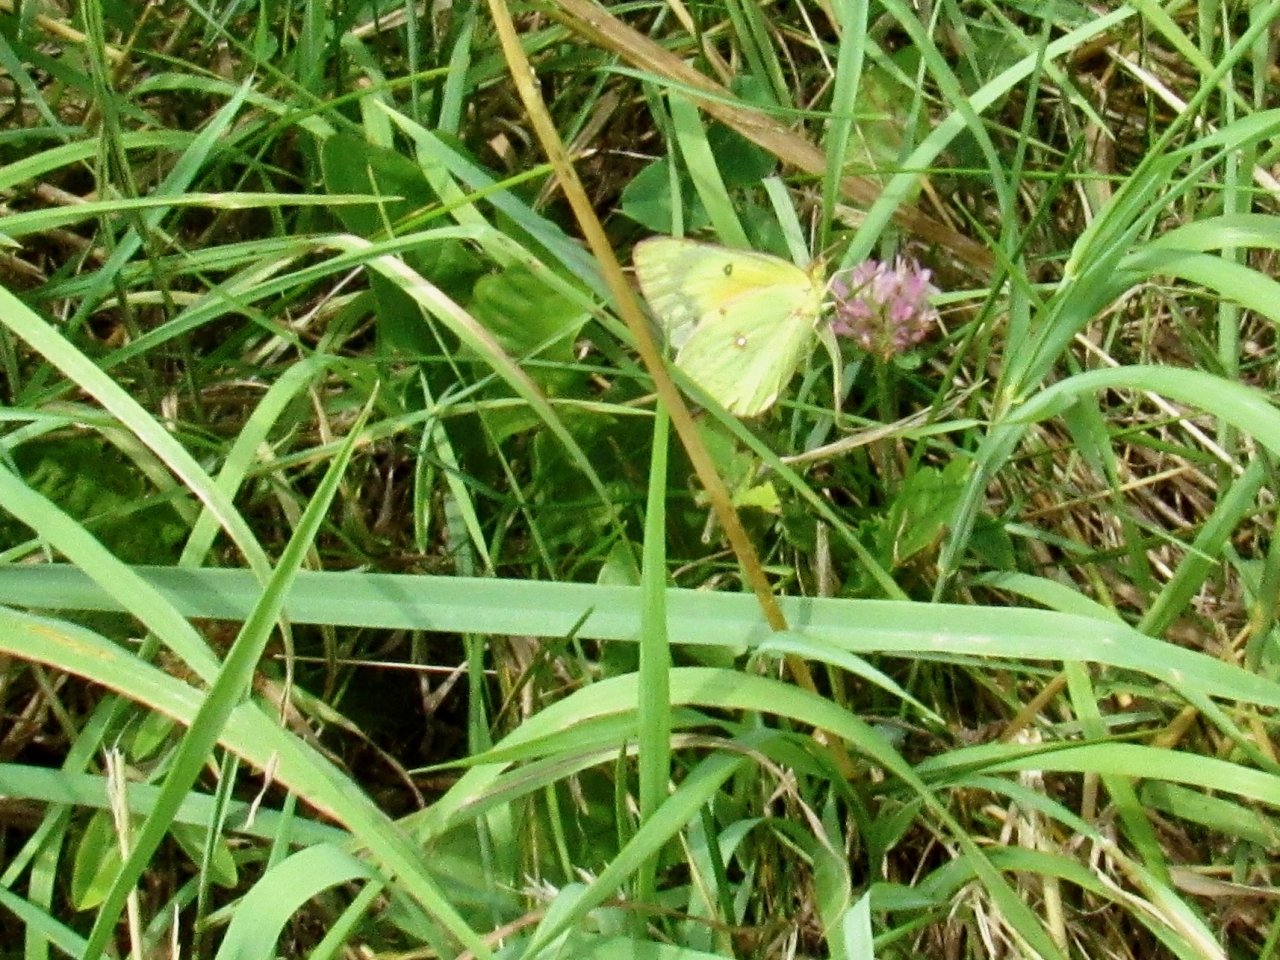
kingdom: Animalia
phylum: Arthropoda
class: Insecta
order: Lepidoptera
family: Pieridae
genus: Colias
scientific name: Colias eurytheme
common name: Orange Sulphur
